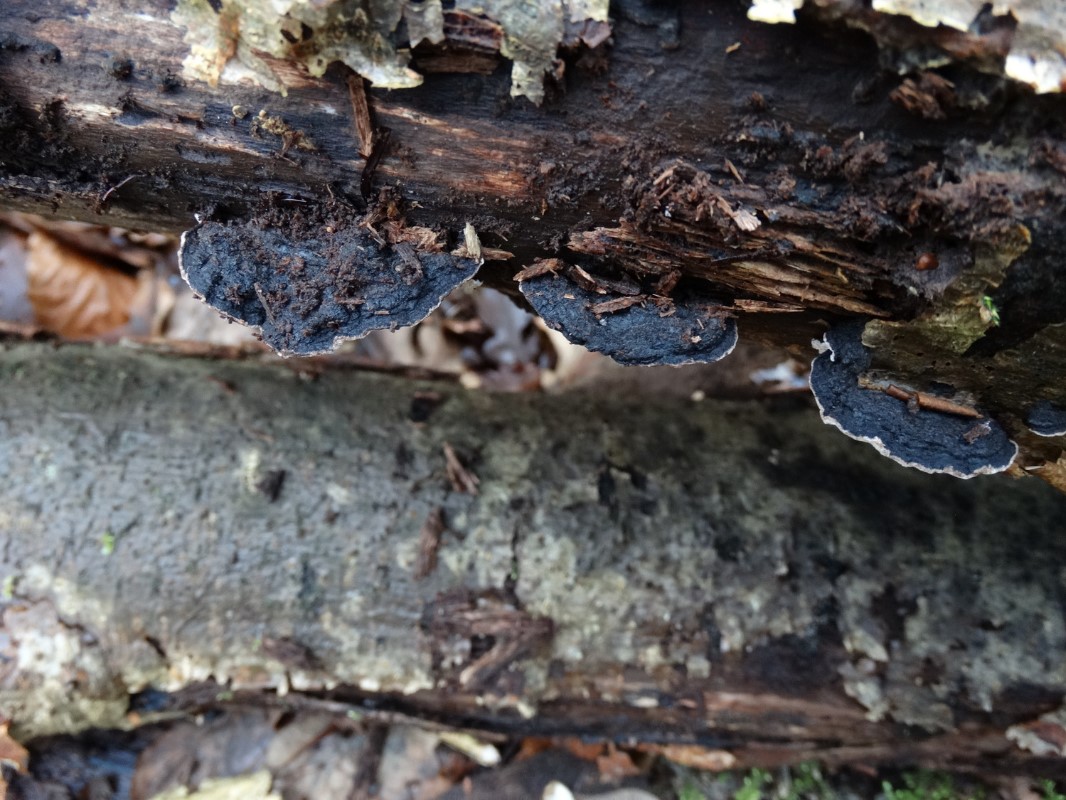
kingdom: Fungi
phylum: Basidiomycota
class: Agaricomycetes
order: Polyporales
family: Polyporaceae
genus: Podofomes
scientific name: Podofomes mollis
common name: blød begporesvamp
